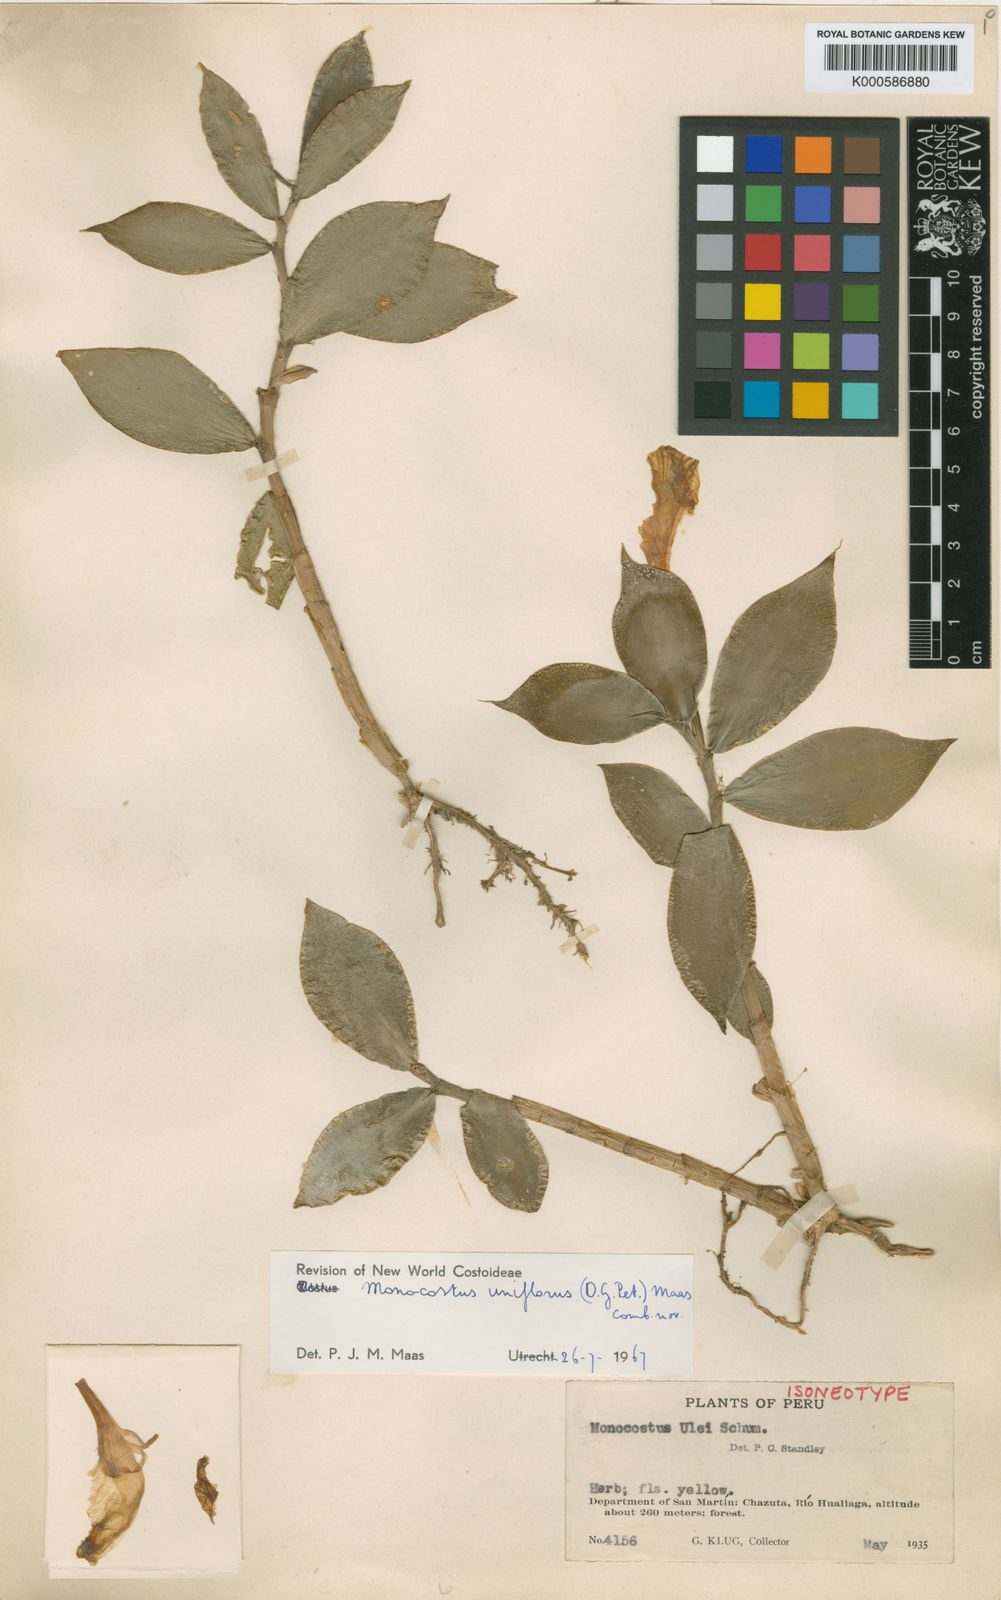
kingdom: Plantae
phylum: Tracheophyta
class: Liliopsida
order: Zingiberales
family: Costaceae
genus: Monocostus
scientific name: Monocostus uniflorus
